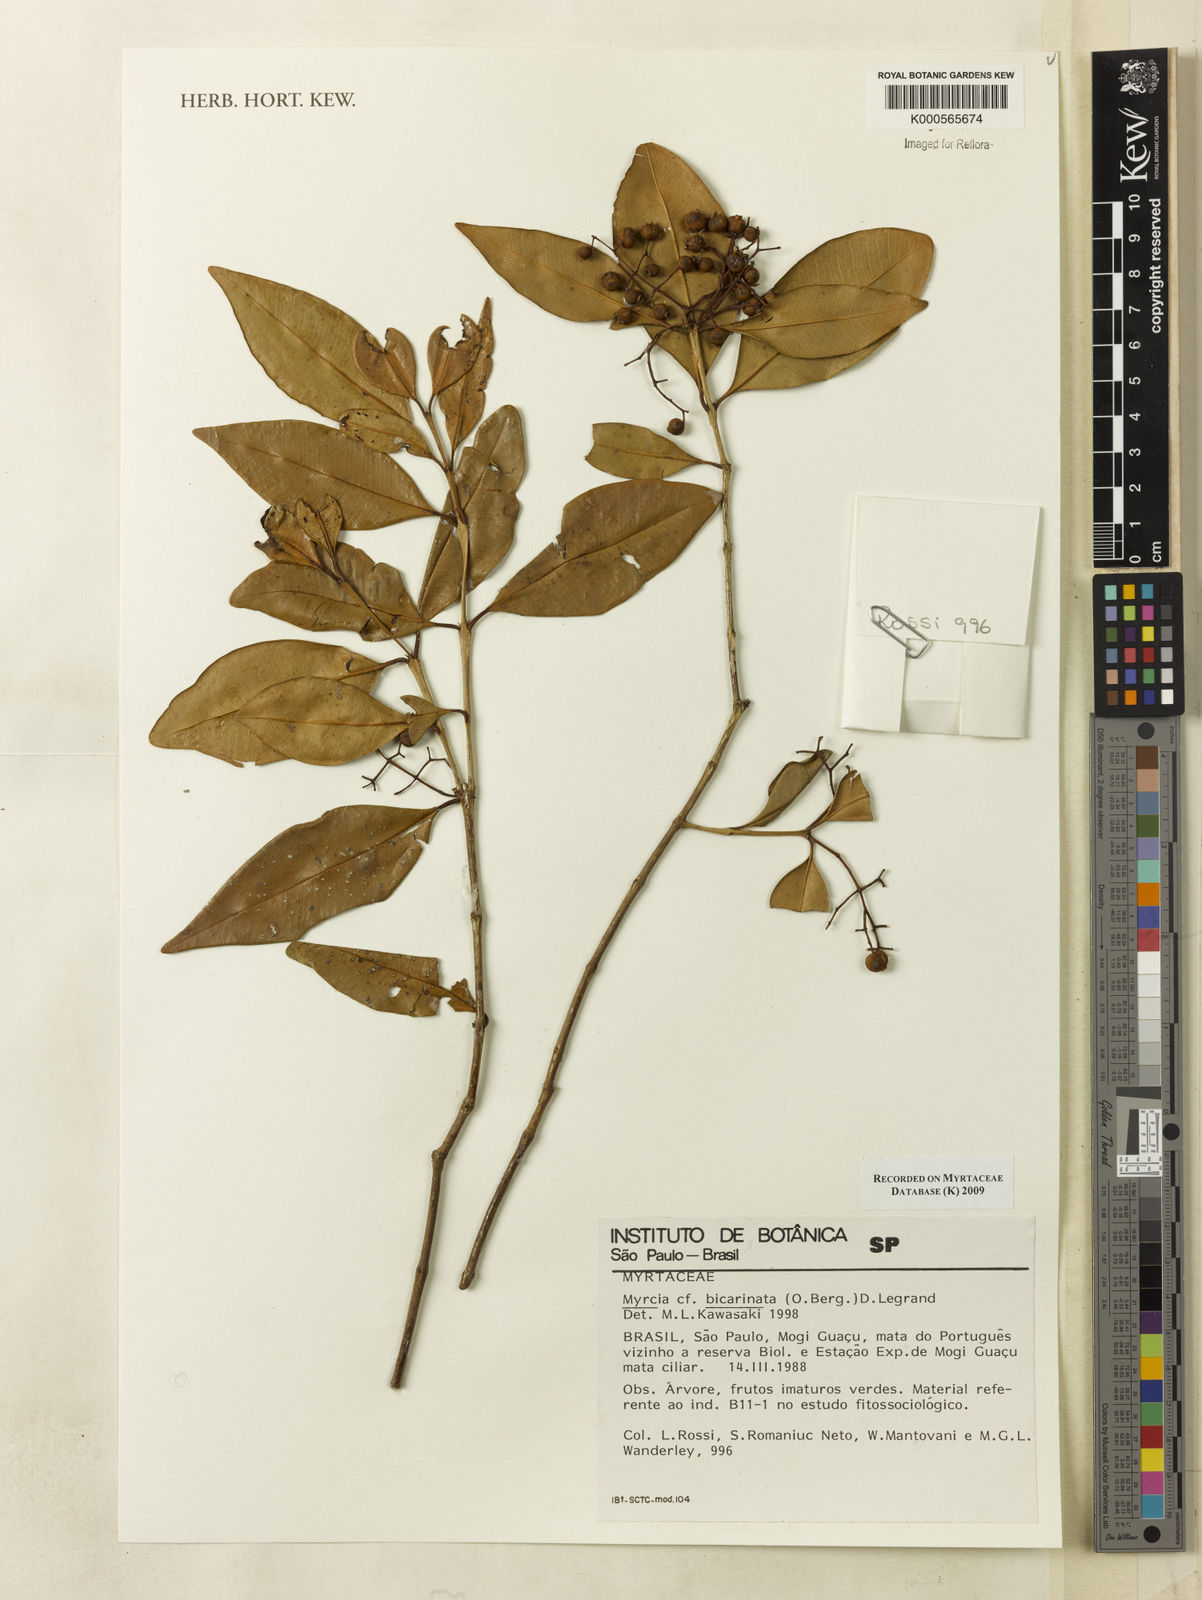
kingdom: Plantae
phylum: Tracheophyta
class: Magnoliopsida
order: Myrtales
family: Myrtaceae
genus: Myrcia
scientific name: Myrcia costeira
